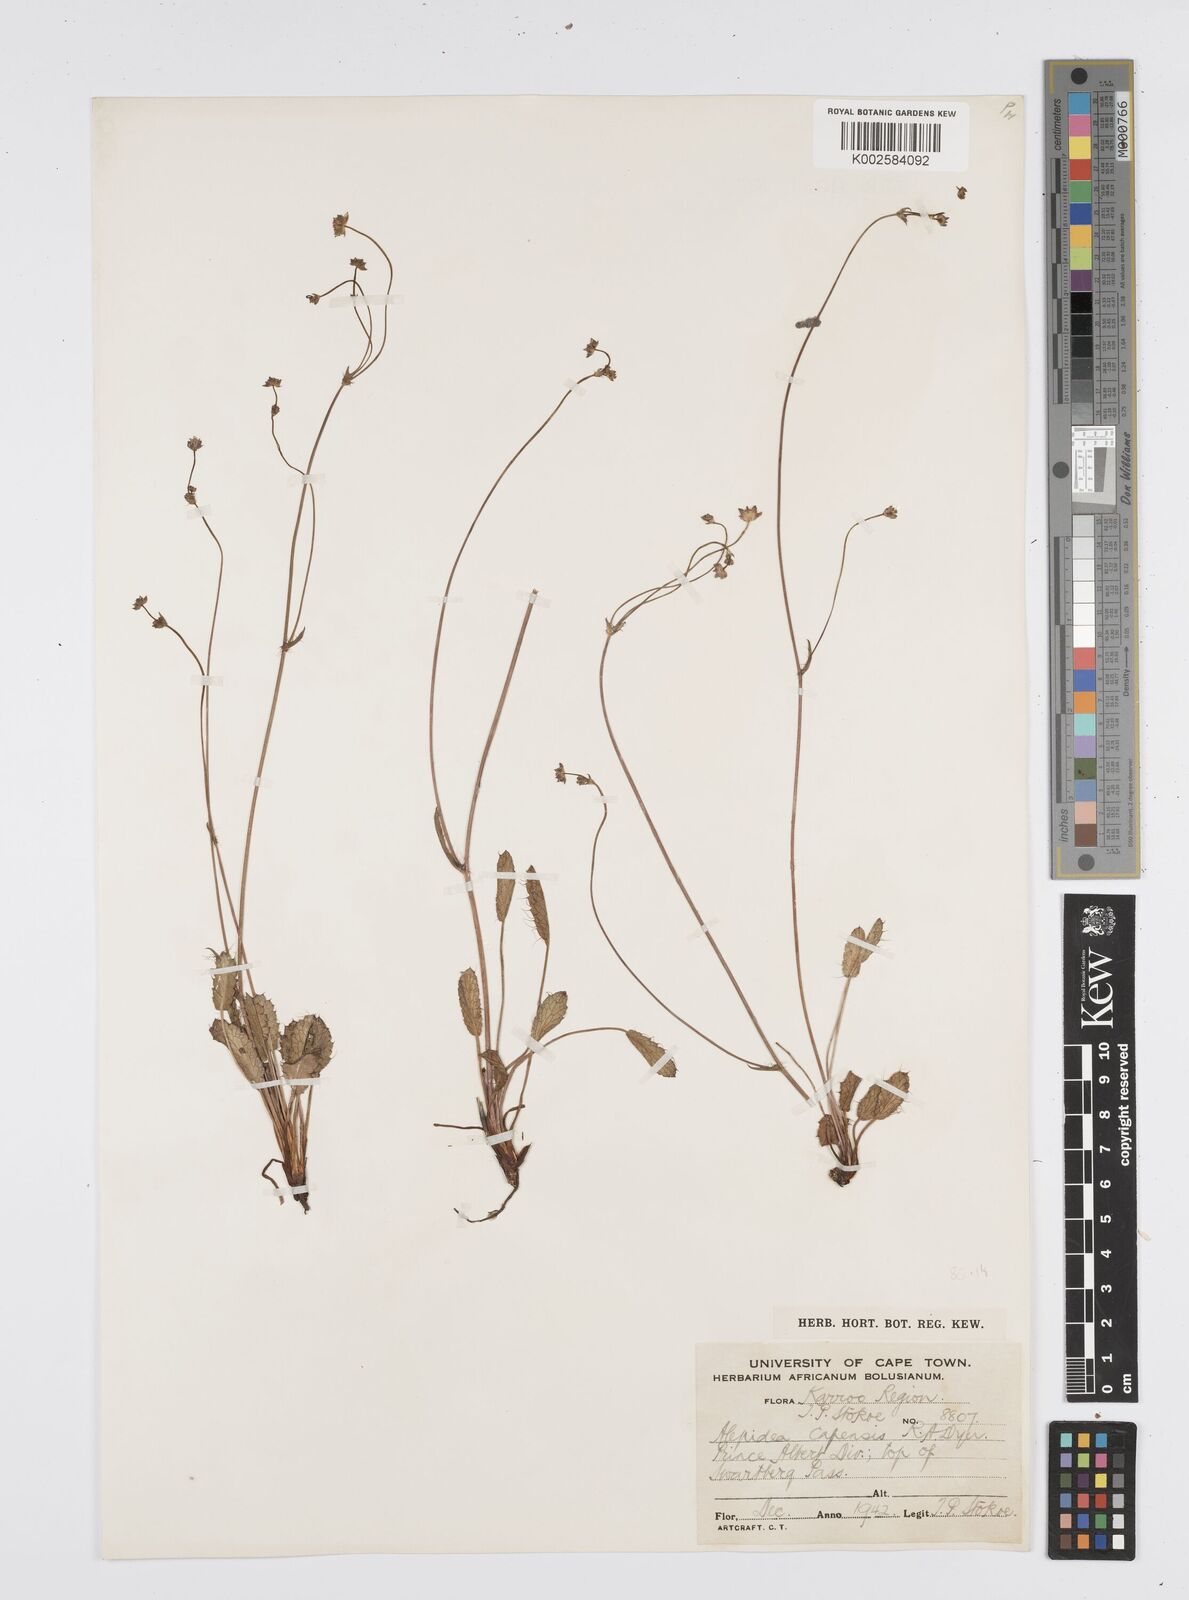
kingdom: Plantae
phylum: Tracheophyta
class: Magnoliopsida
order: Apiales
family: Apiaceae
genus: Alepidea
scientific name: Alepidea capensis
